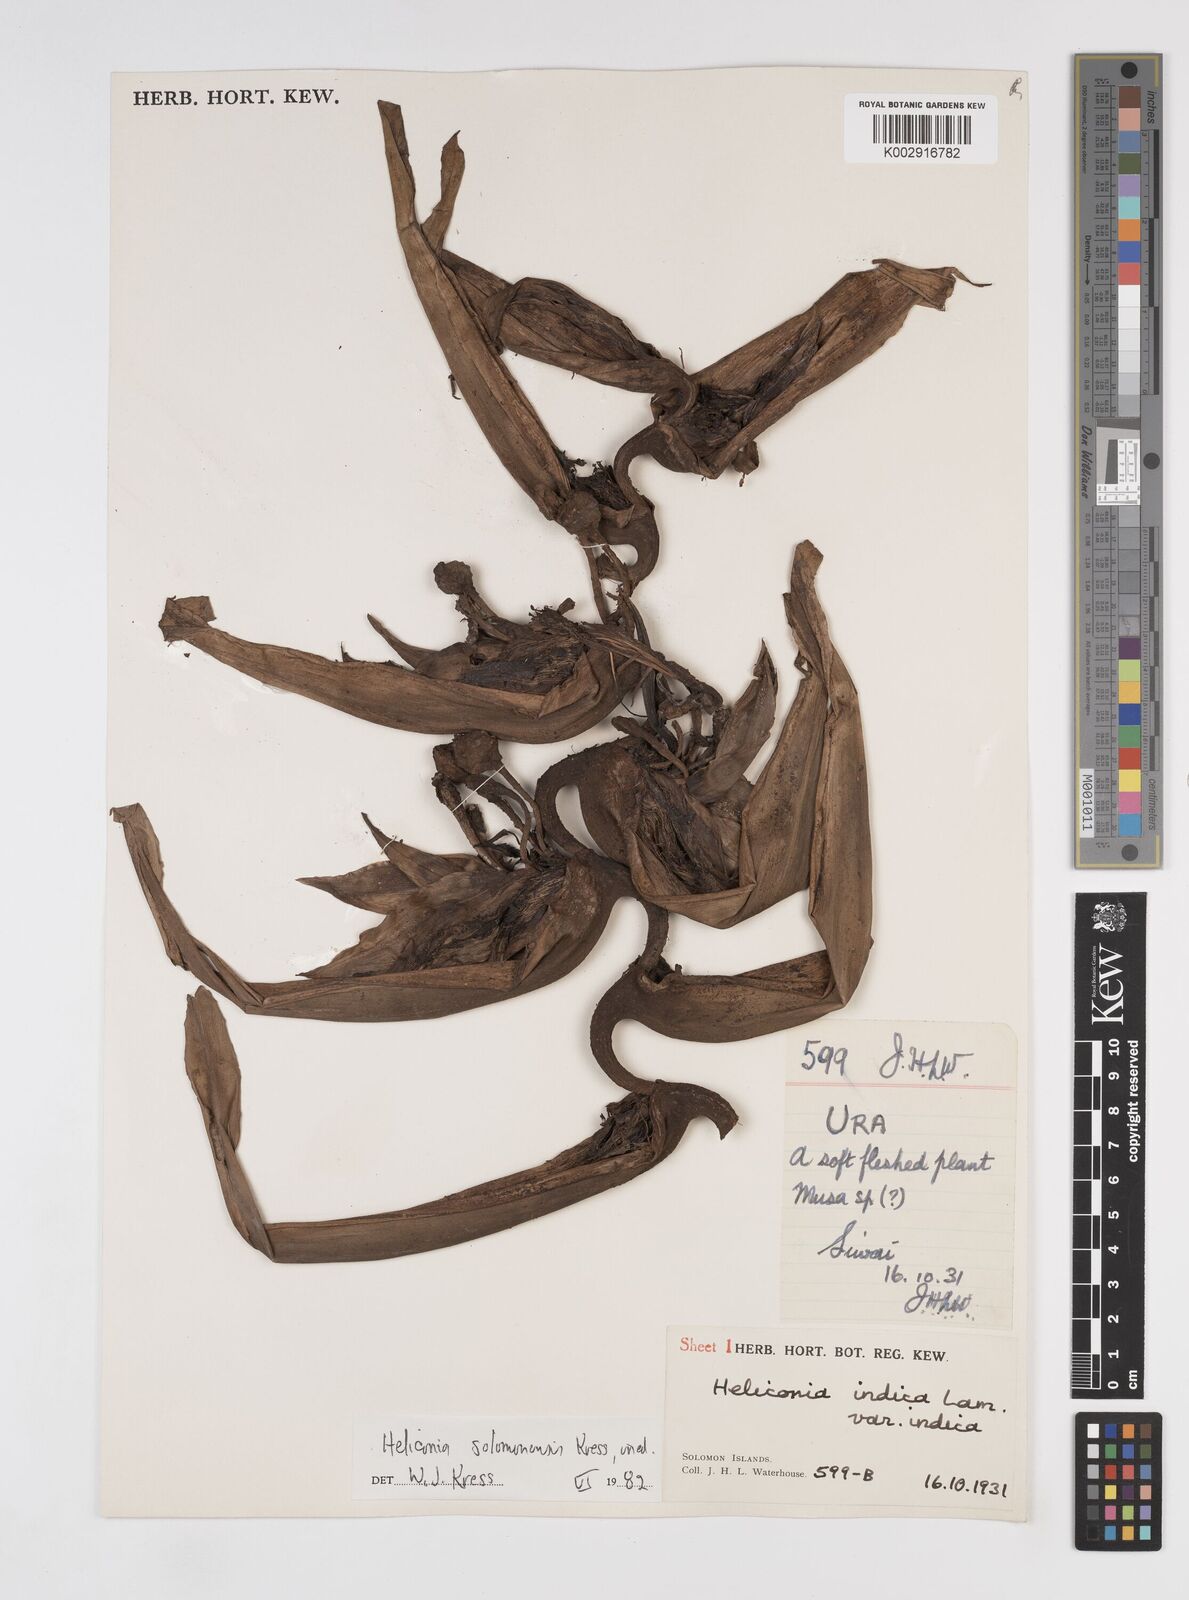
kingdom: Plantae
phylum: Tracheophyta
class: Liliopsida
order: Zingiberales
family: Heliconiaceae
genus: Heliconia
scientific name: Heliconia solomonensis
